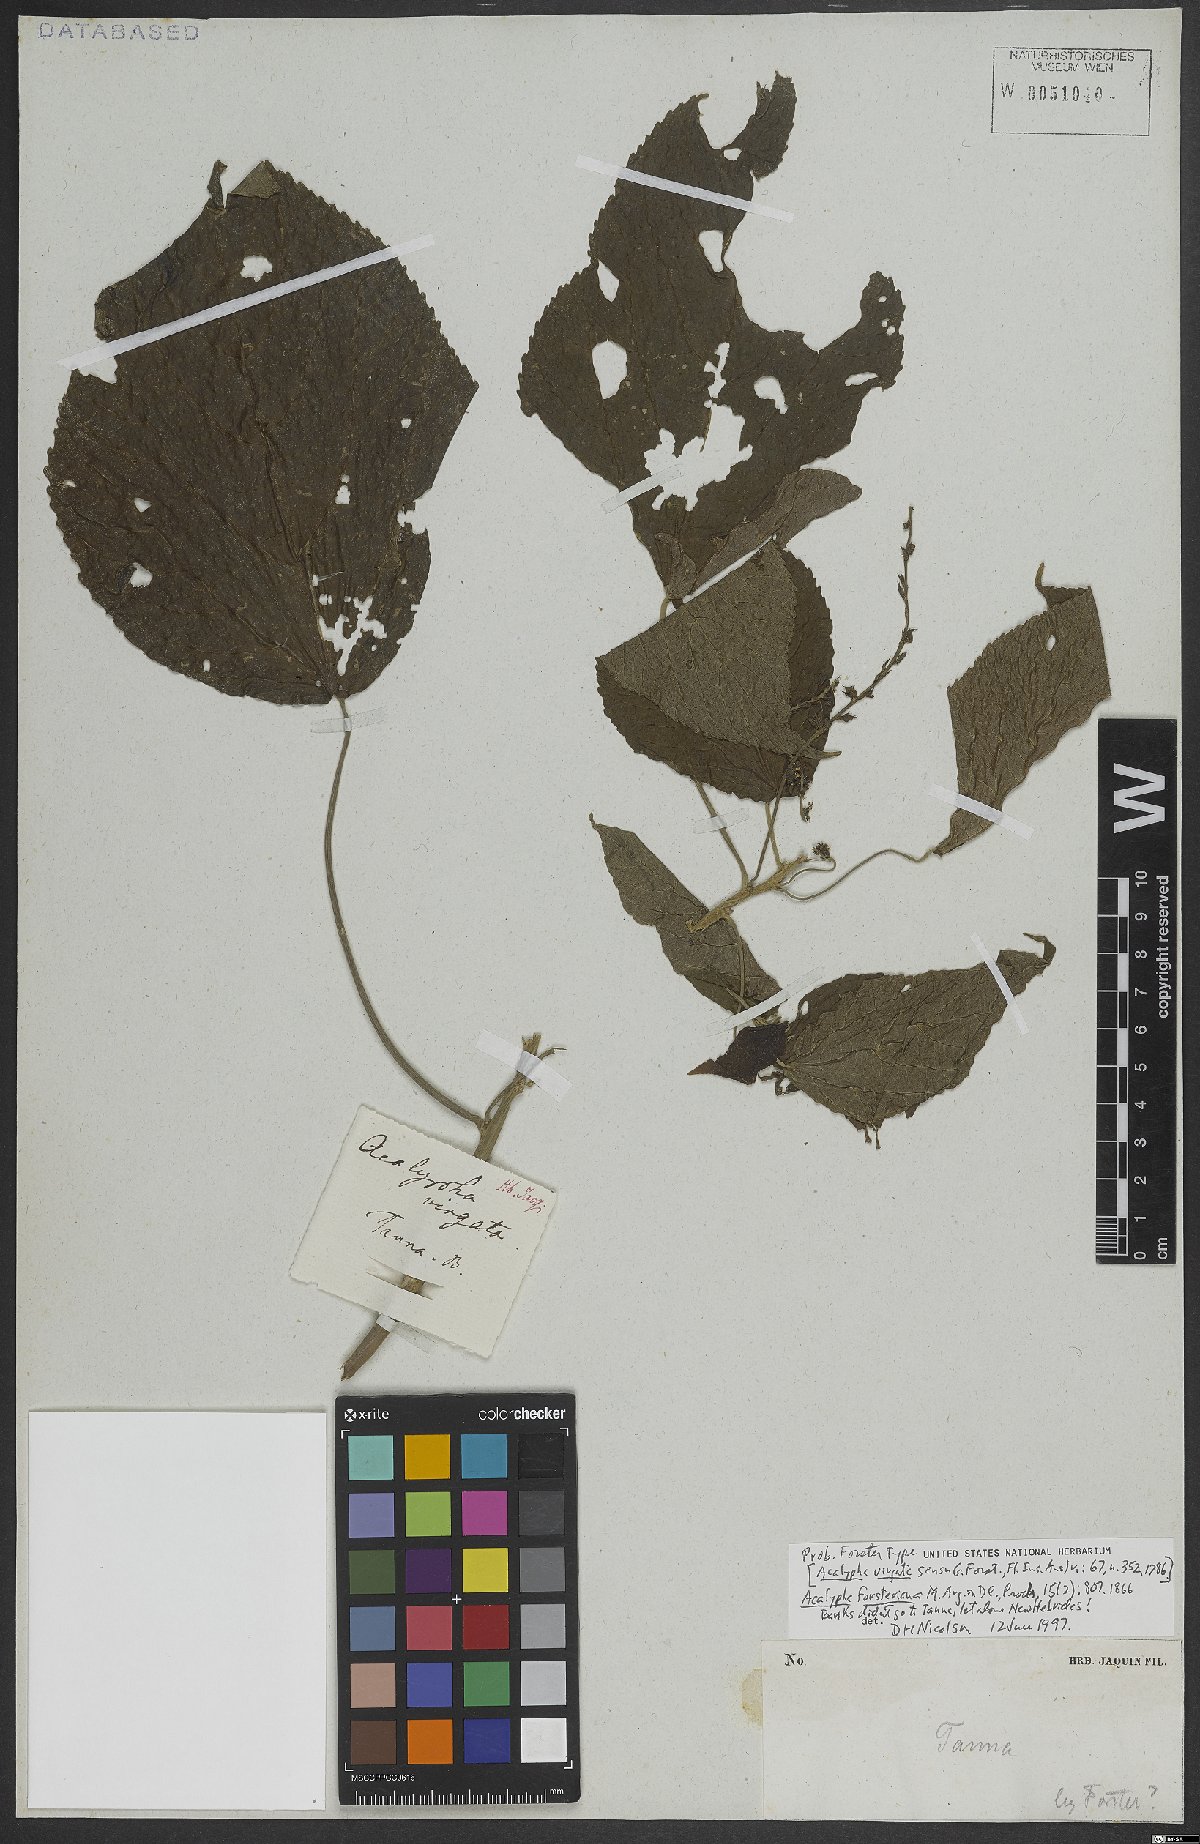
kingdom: Plantae
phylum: Tracheophyta
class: Magnoliopsida
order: Malpighiales
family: Euphorbiaceae
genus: Acalypha
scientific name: Acalypha forsteriana
